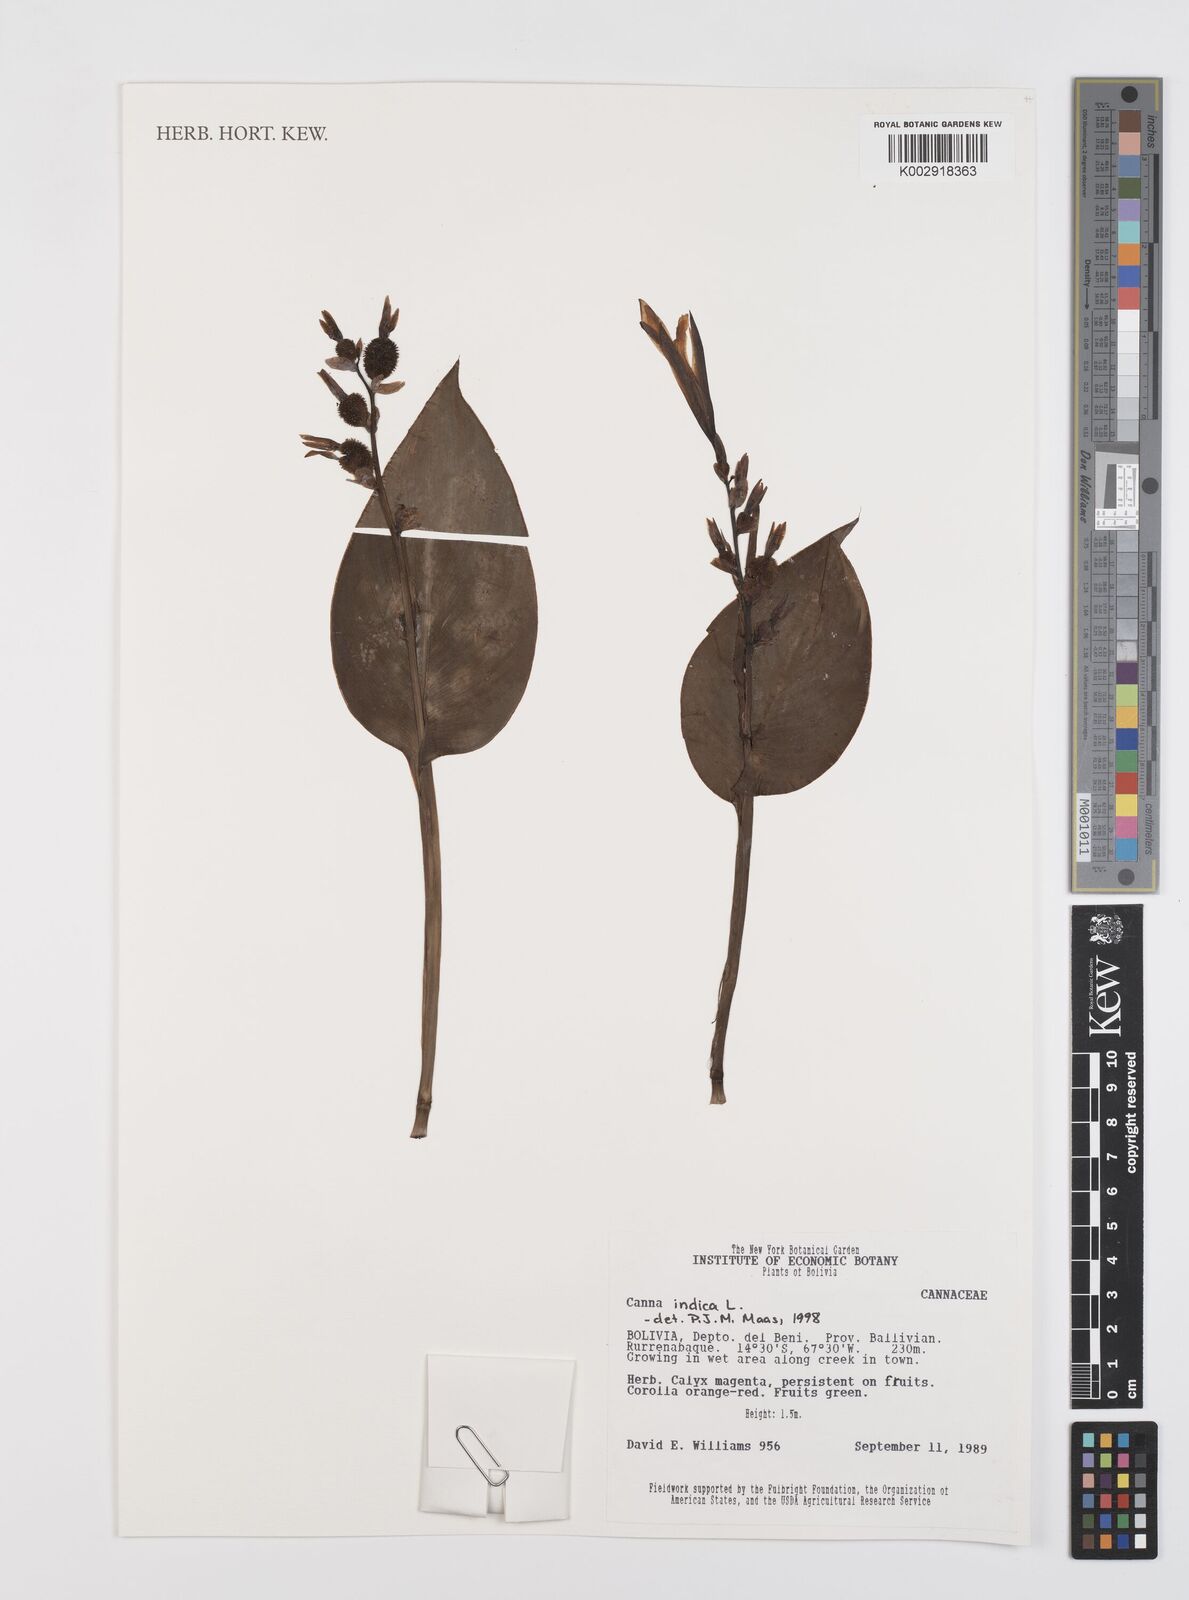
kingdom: Plantae
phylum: Tracheophyta
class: Liliopsida
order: Zingiberales
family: Cannaceae
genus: Canna
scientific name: Canna indica
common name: Indian shot
